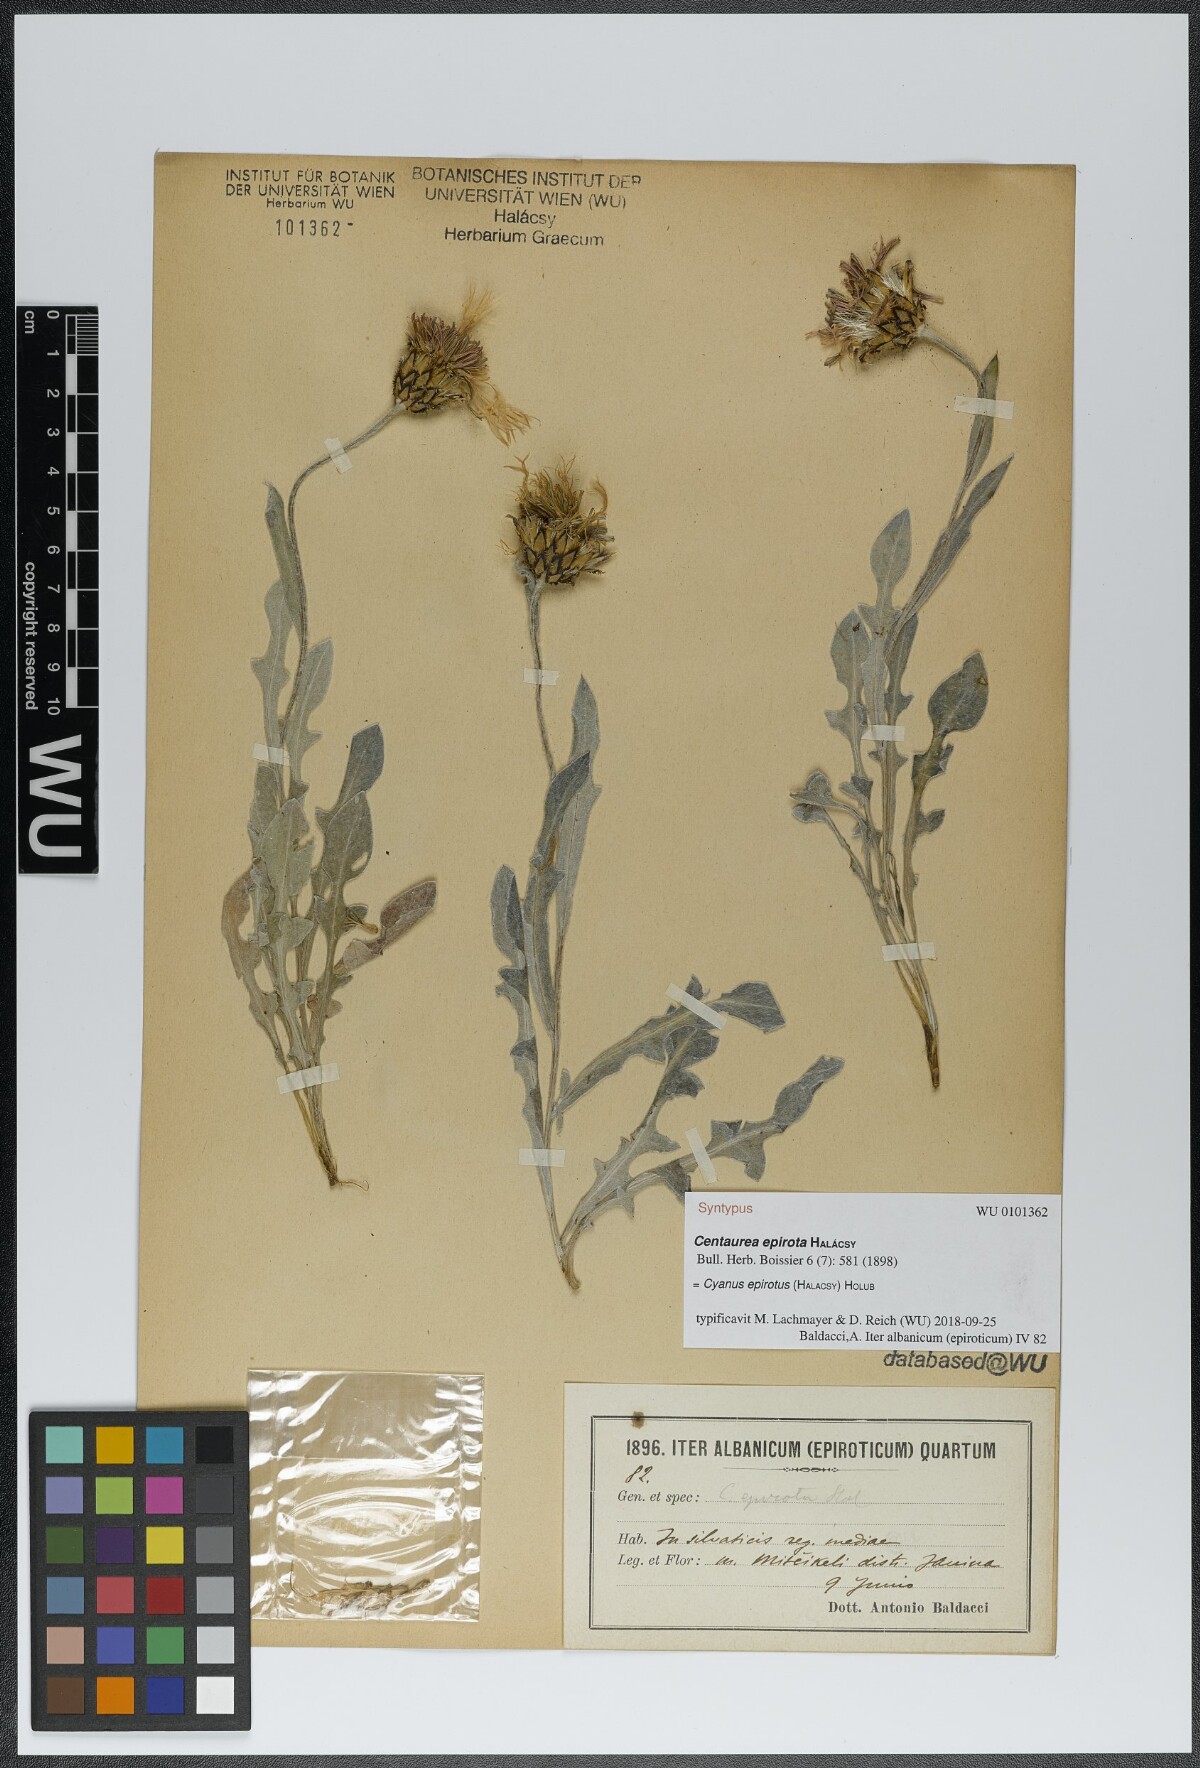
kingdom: Plantae
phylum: Tracheophyta
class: Magnoliopsida
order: Asterales
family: Asteraceae
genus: Centaurea
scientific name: Centaurea epirota
